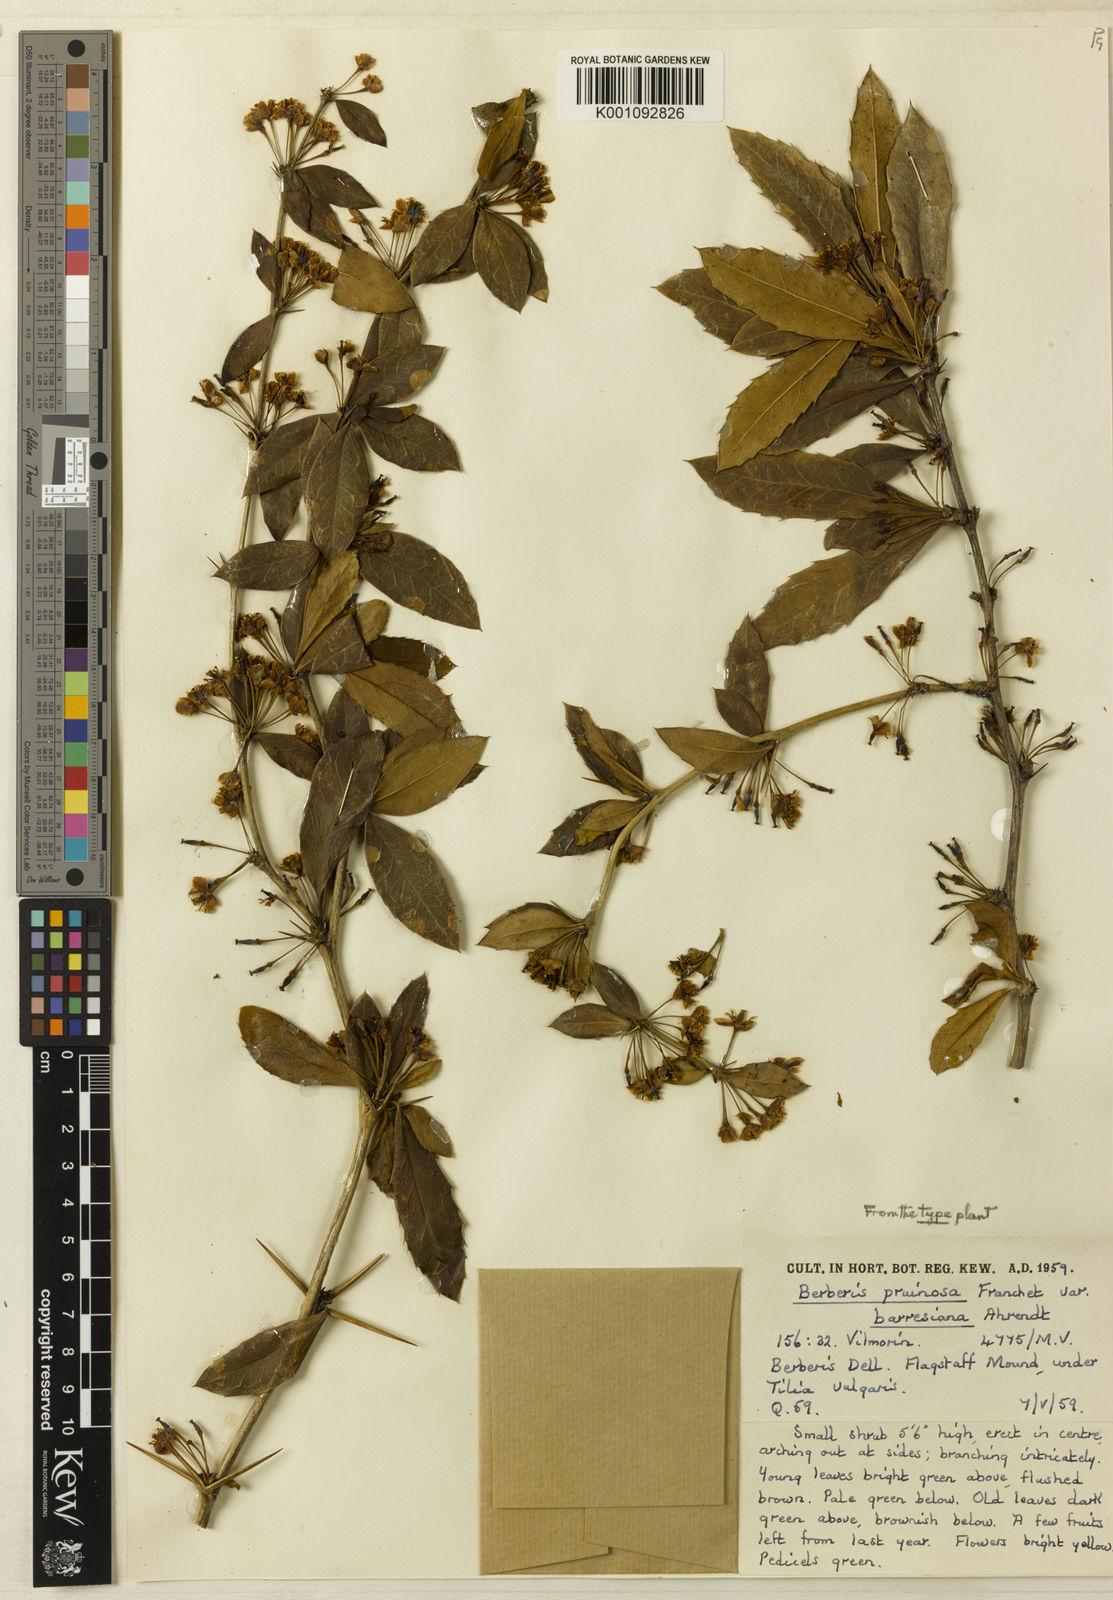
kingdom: Plantae
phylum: Tracheophyta
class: Magnoliopsida
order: Ranunculales
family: Berberidaceae
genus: Berberis
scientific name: Berberis pruinosa
